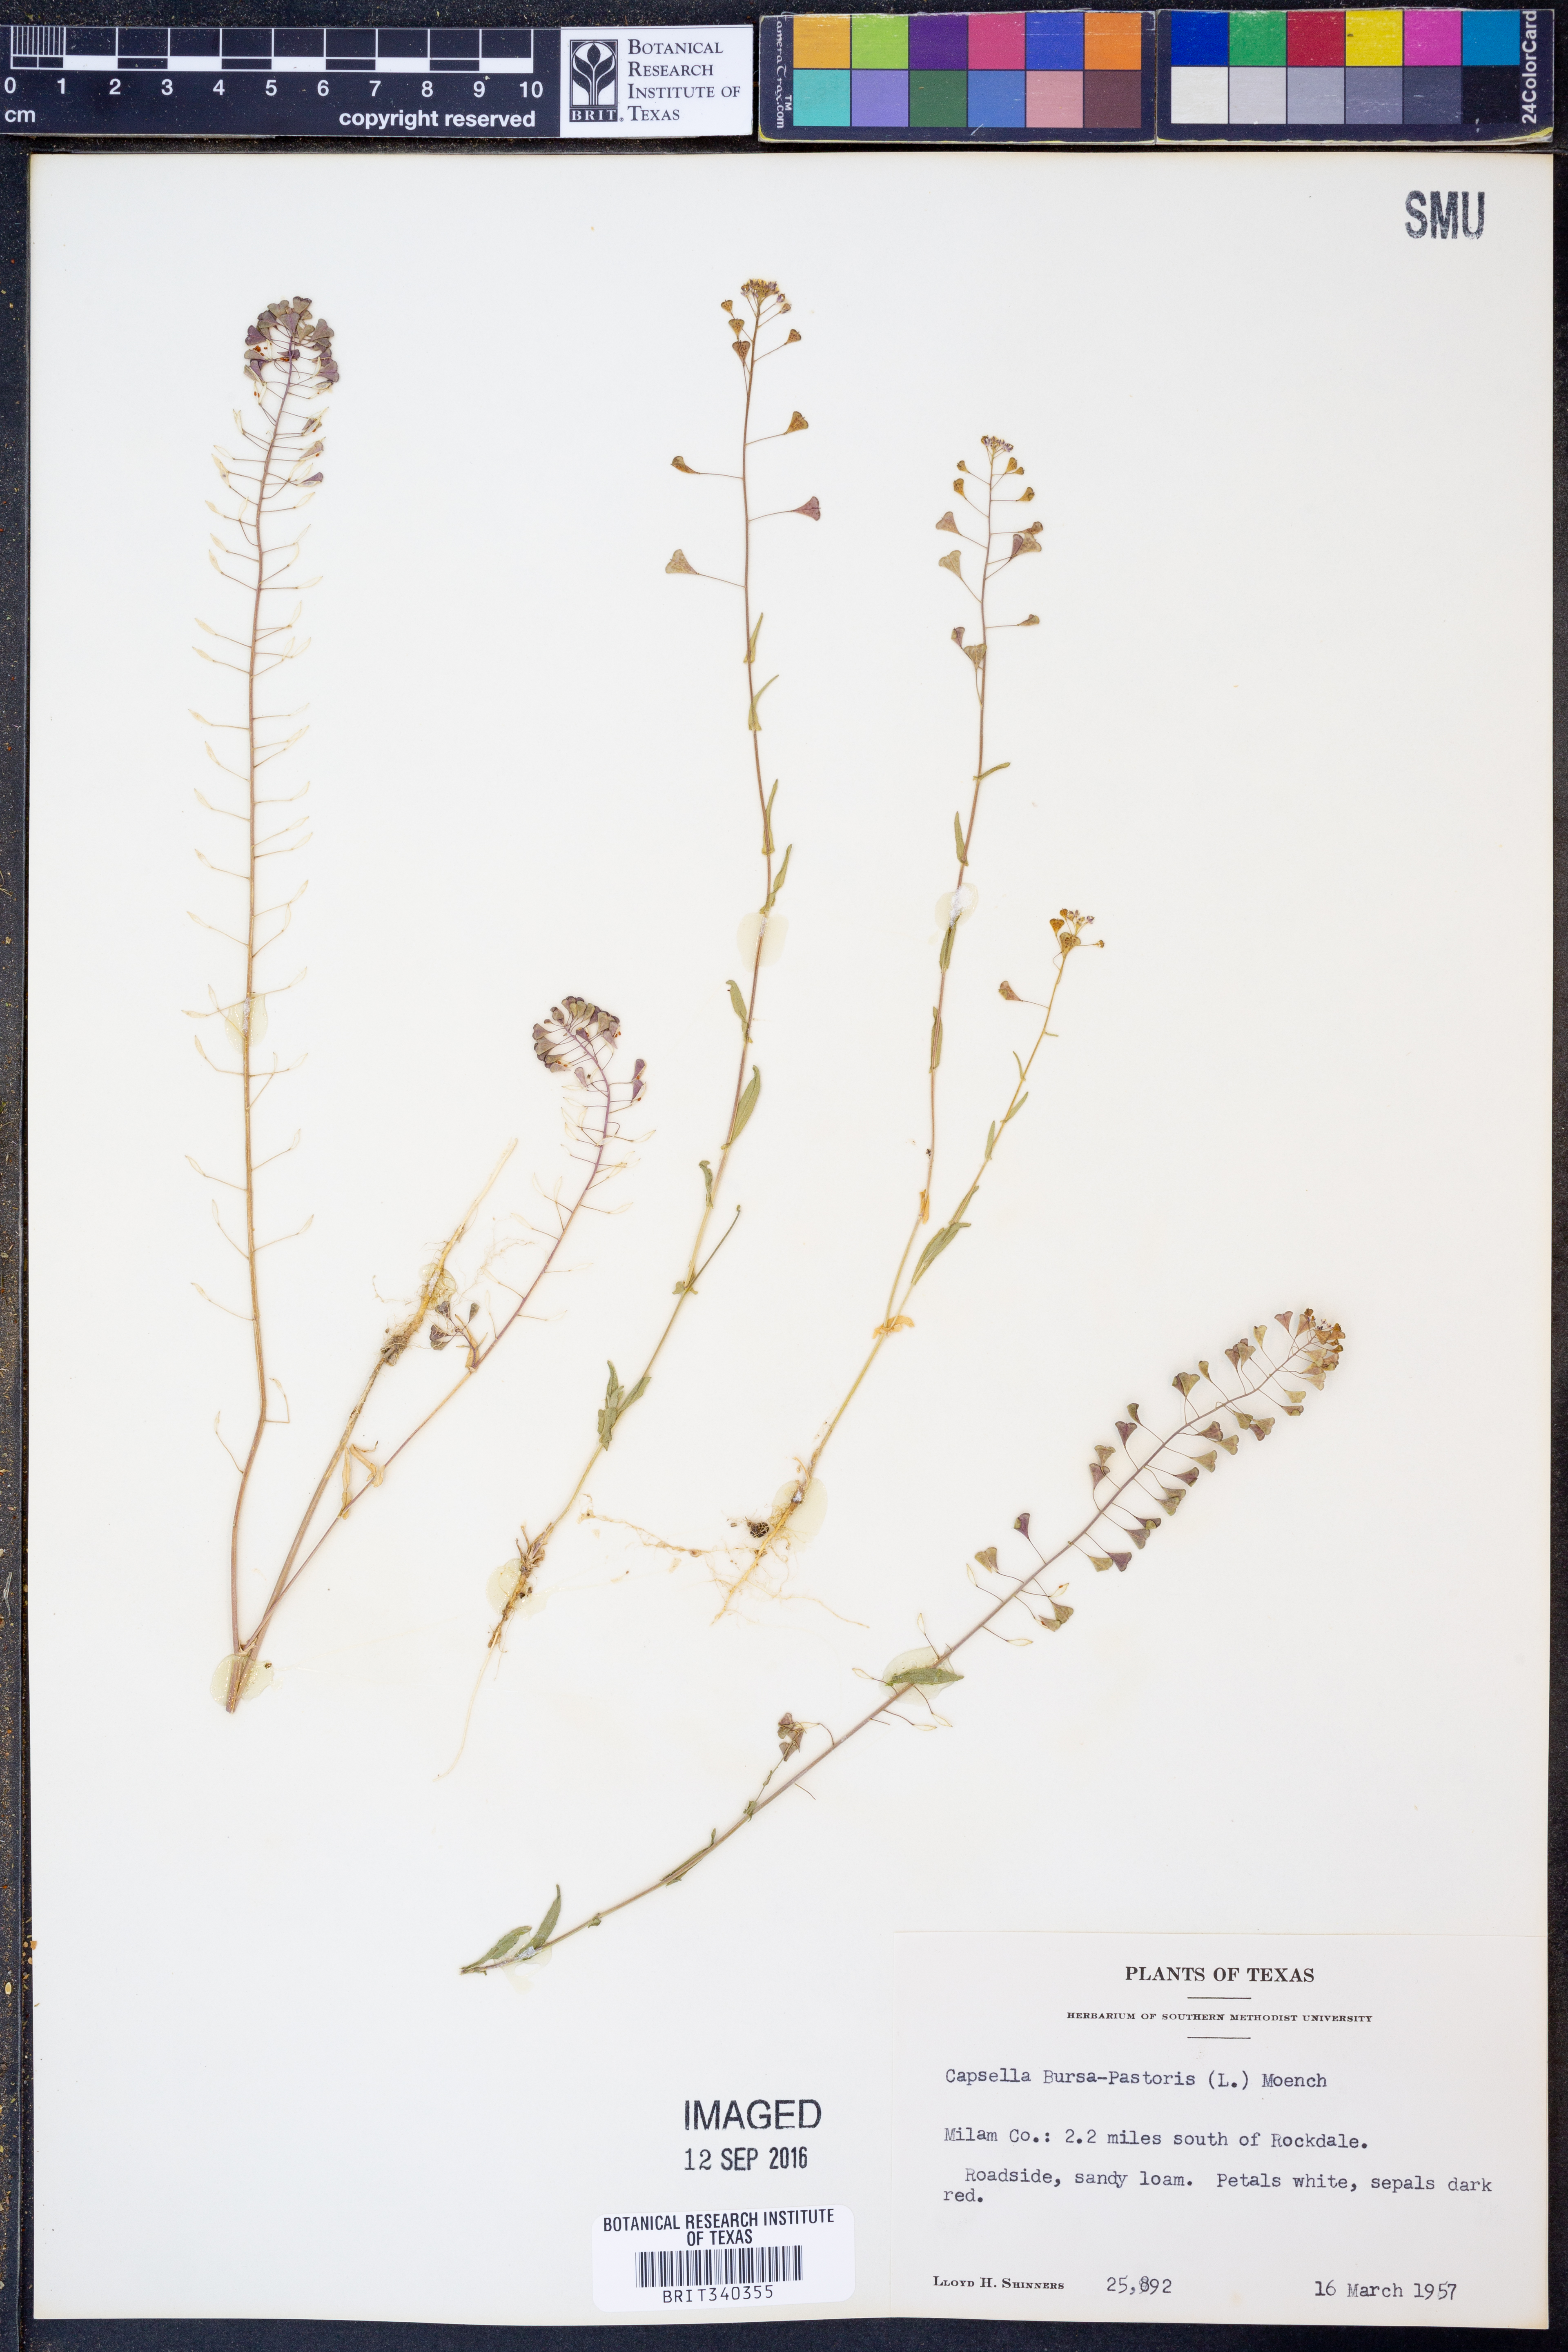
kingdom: Plantae
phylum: Tracheophyta
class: Magnoliopsida
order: Brassicales
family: Brassicaceae
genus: Capsella
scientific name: Capsella bursa-pastoris
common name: Shepherd's purse
